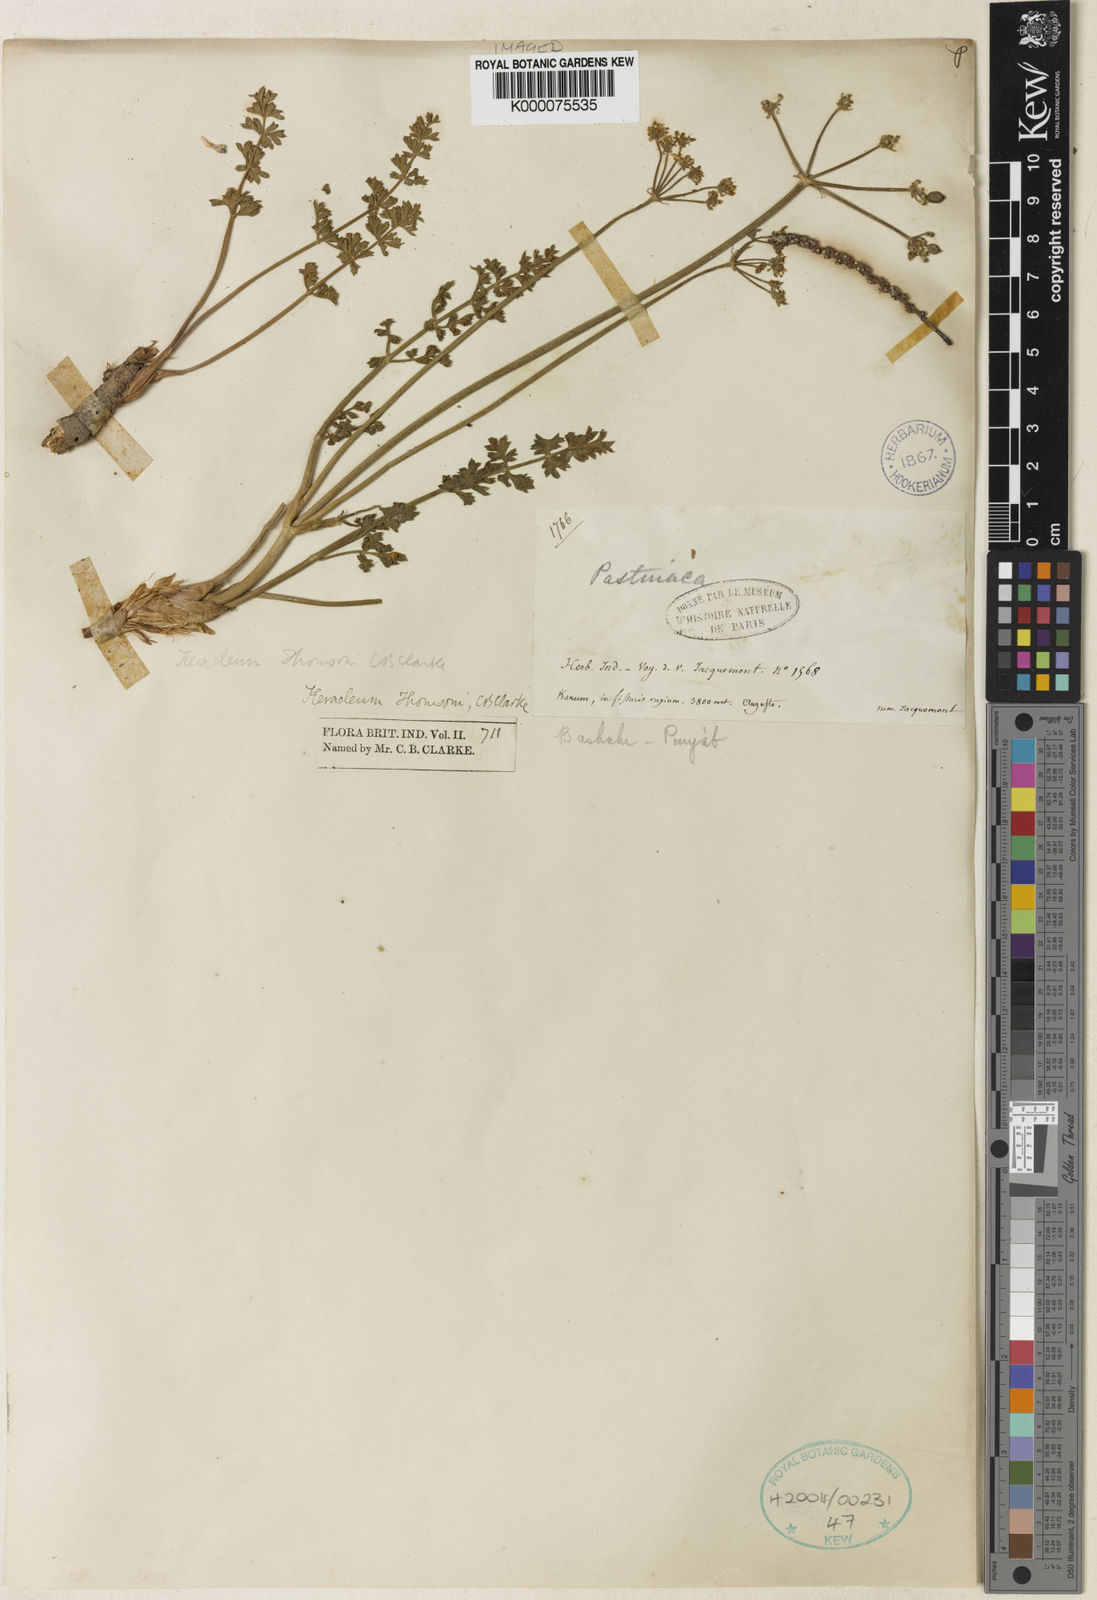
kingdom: Plantae
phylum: Tracheophyta
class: Magnoliopsida
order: Apiales
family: Apiaceae
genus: Semenovia
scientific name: Semenovia thomsonii
